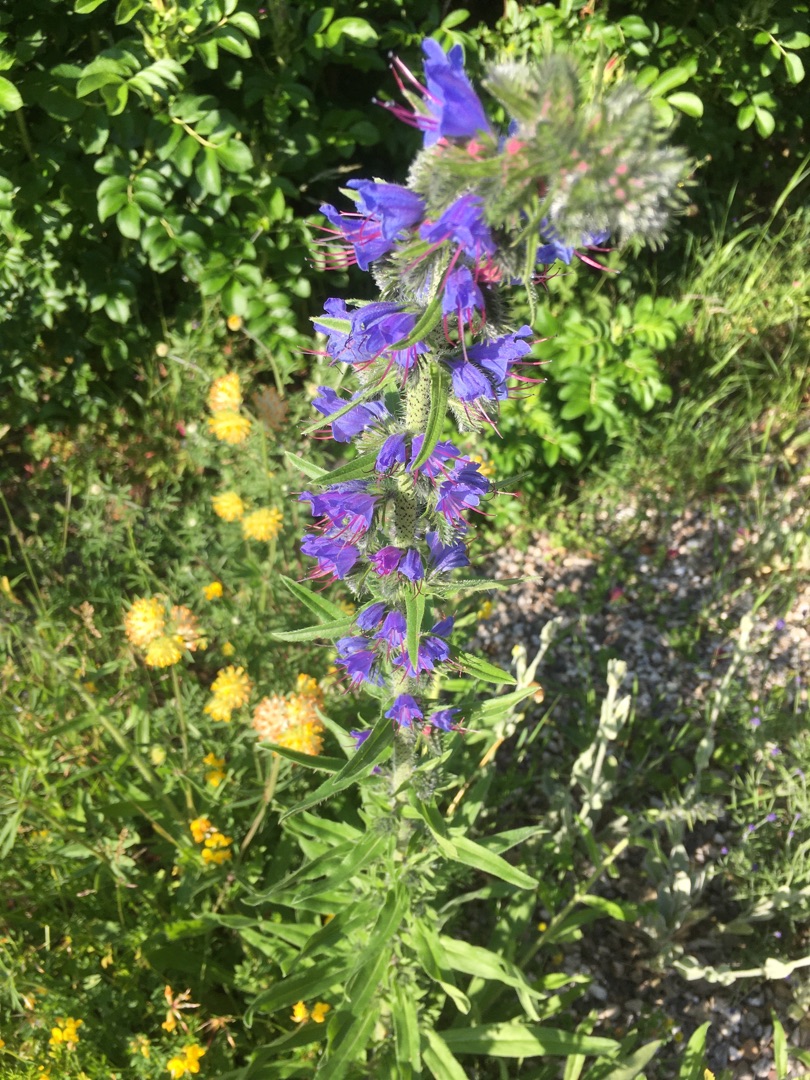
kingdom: Plantae
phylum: Tracheophyta
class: Magnoliopsida
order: Boraginales
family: Boraginaceae
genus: Echium
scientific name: Echium vulgare
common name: Slangehoved
